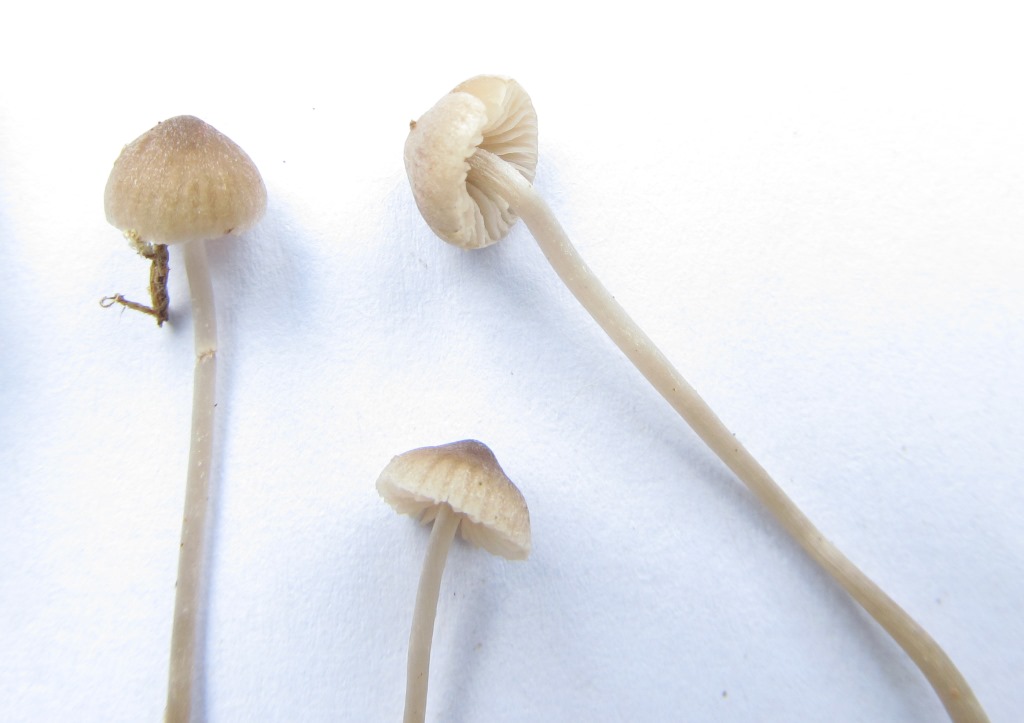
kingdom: Fungi
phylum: Basidiomycota
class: Agaricomycetes
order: Agaricales
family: Lyophyllaceae
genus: Sagaranella
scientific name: Sagaranella tylicolor
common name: kvælstof-gråblad
